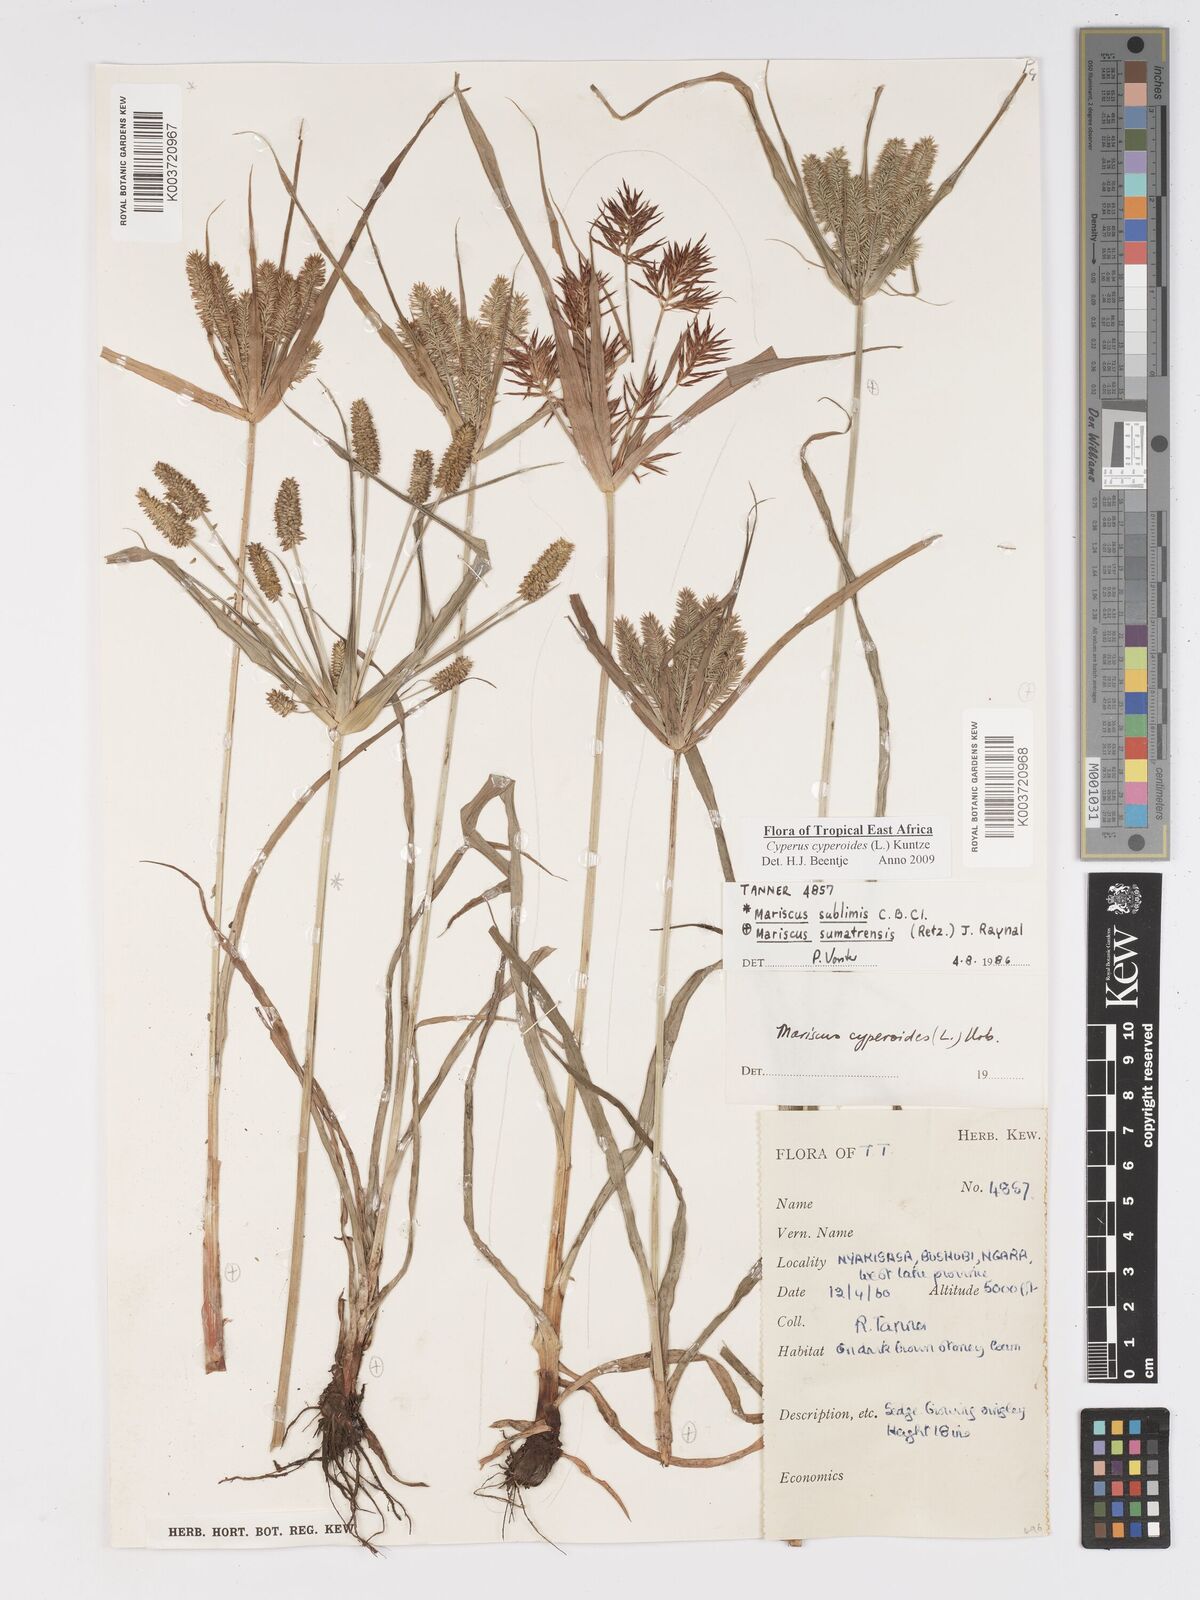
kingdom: Plantae
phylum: Tracheophyta
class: Liliopsida
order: Poales
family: Cyperaceae
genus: Cyperus
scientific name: Cyperus cyperoides
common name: Pacific island flat sedge
